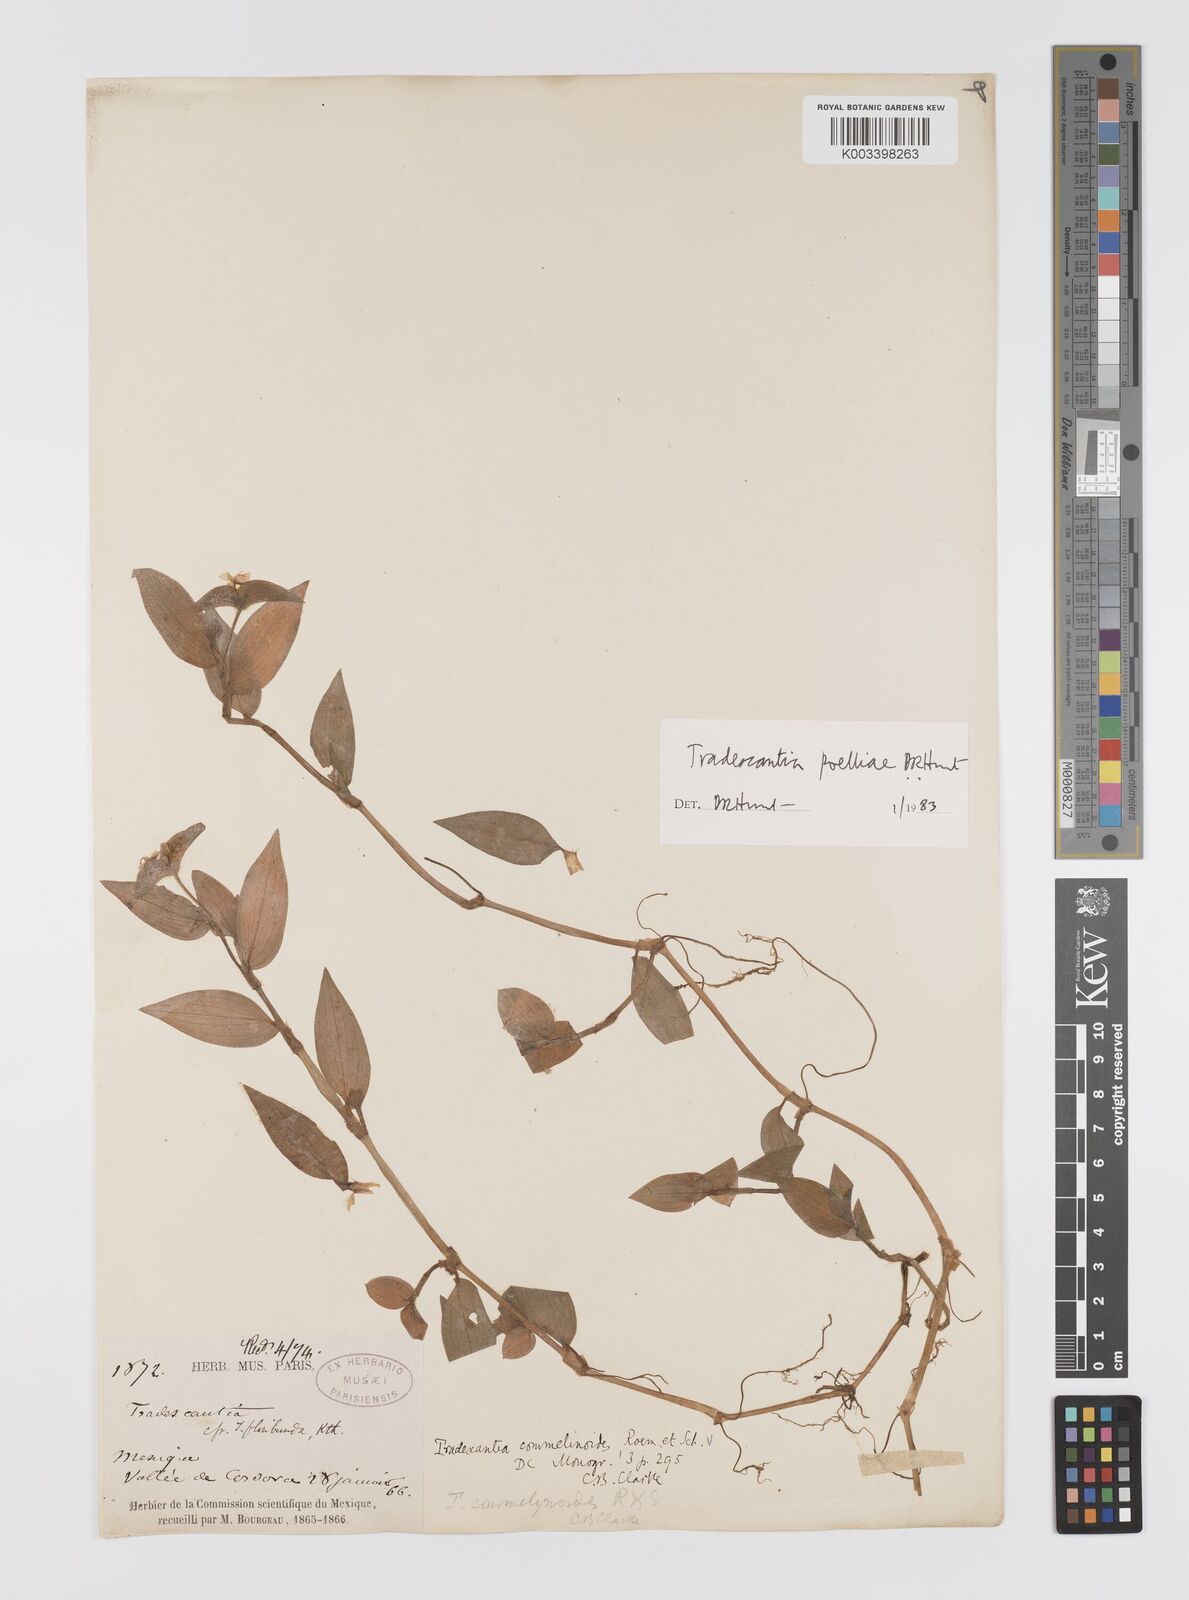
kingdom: Plantae
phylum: Tracheophyta
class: Liliopsida
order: Commelinales
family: Commelinaceae
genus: Tradescantia
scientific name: Tradescantia poelliae
